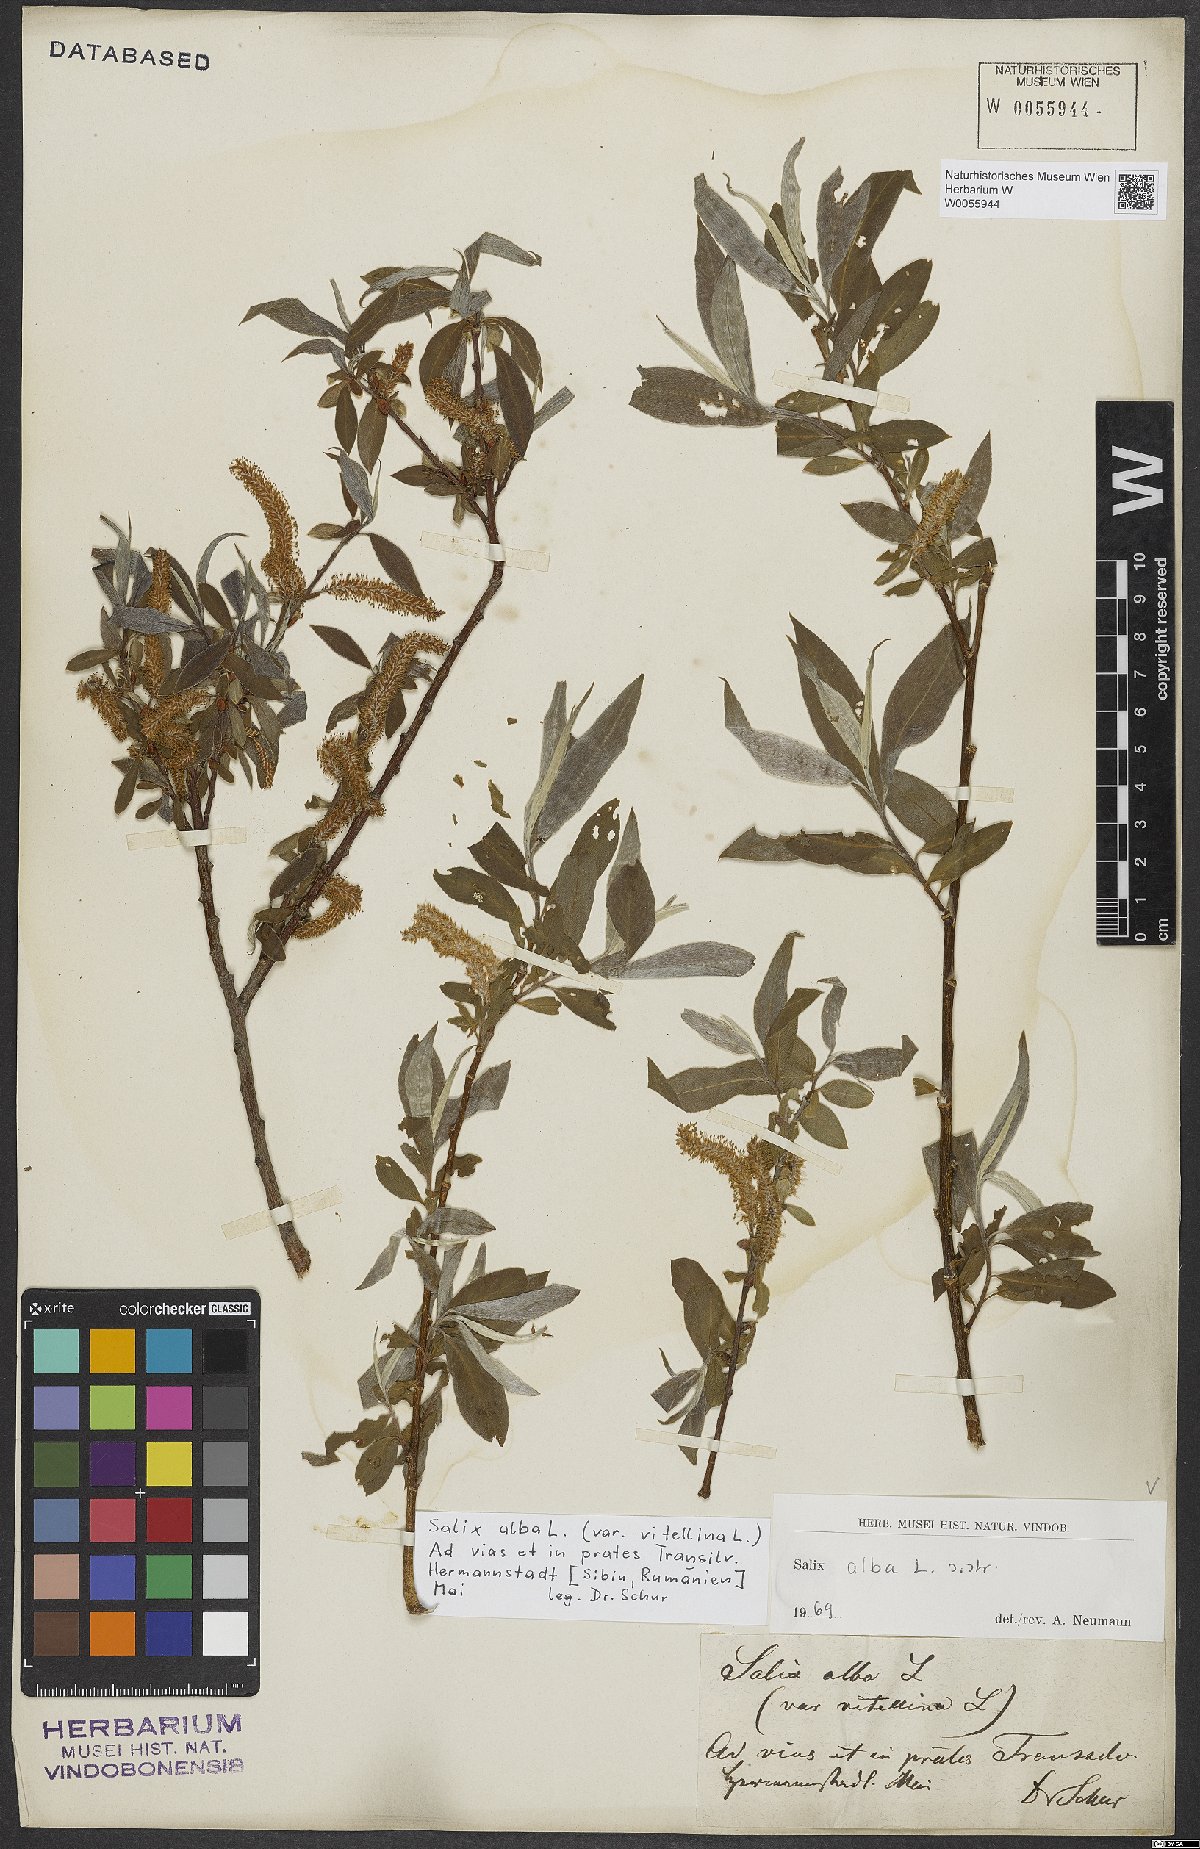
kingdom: Plantae
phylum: Tracheophyta
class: Magnoliopsida
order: Malpighiales
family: Salicaceae
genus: Salix
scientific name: Salix alba
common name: White willow
